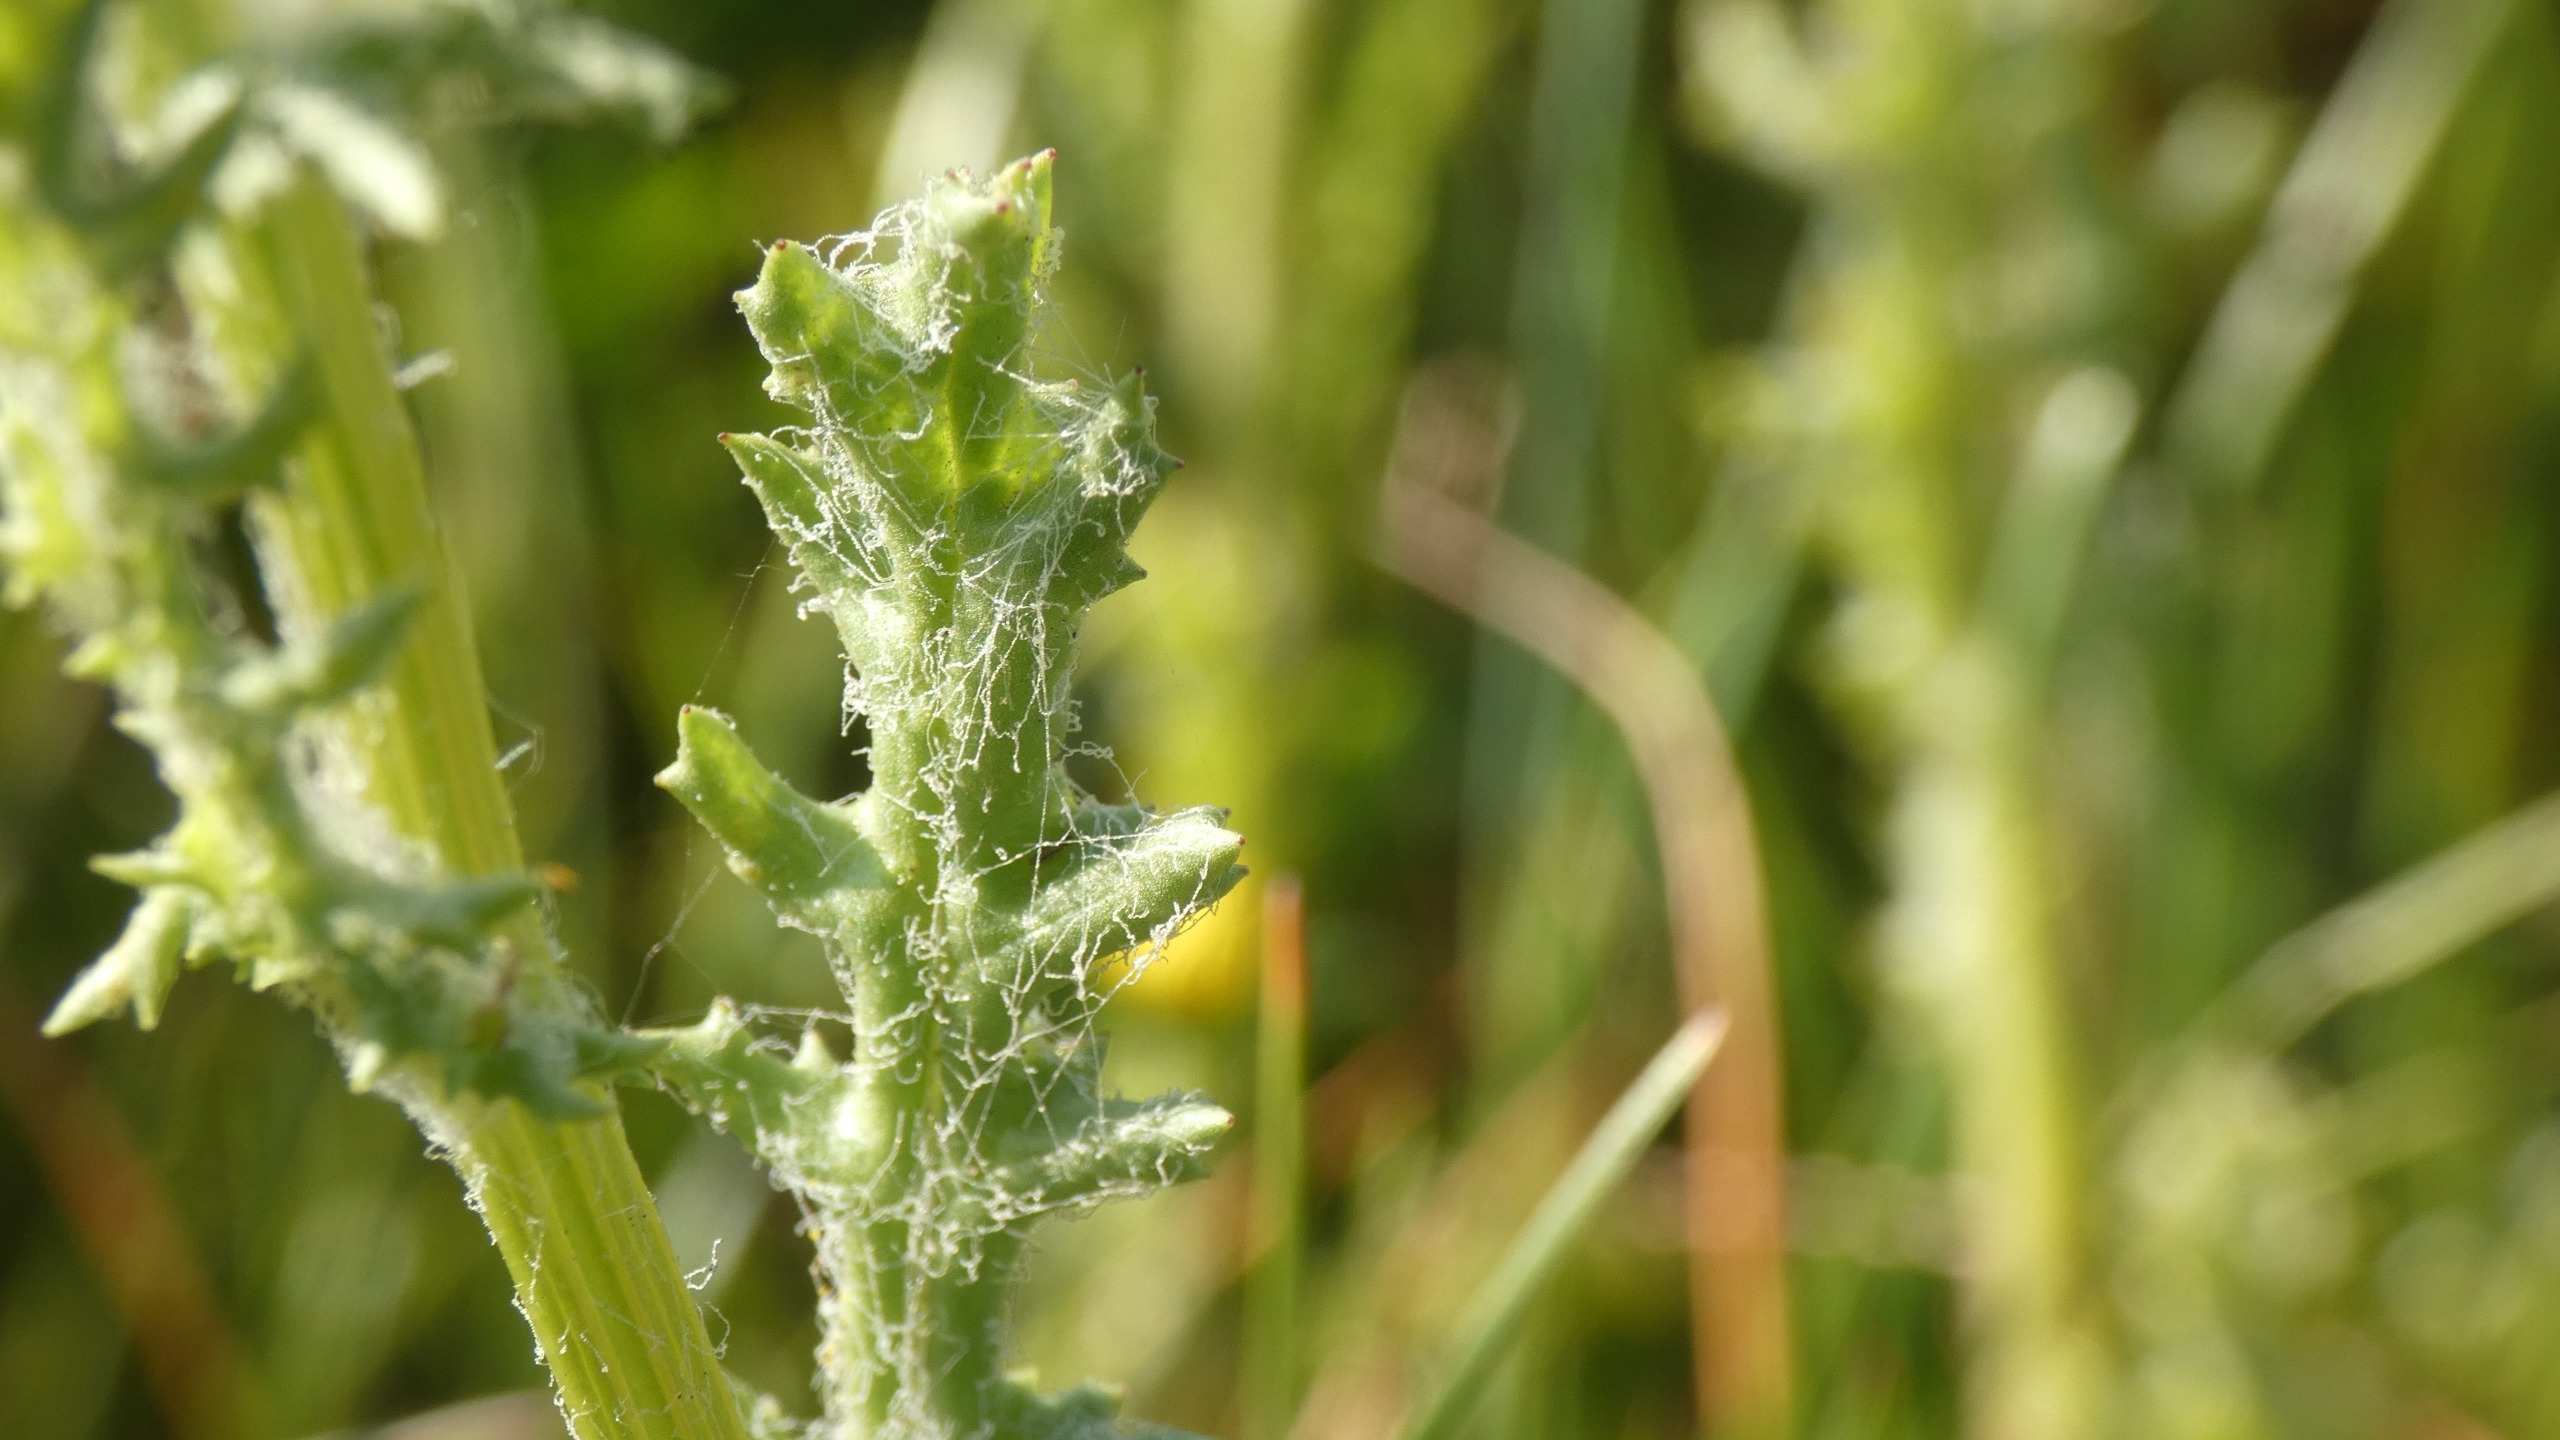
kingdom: Plantae
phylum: Tracheophyta
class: Magnoliopsida
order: Asterales
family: Asteraceae
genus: Jacobaea
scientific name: Jacobaea vulgaris
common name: Eng-brandbæger
